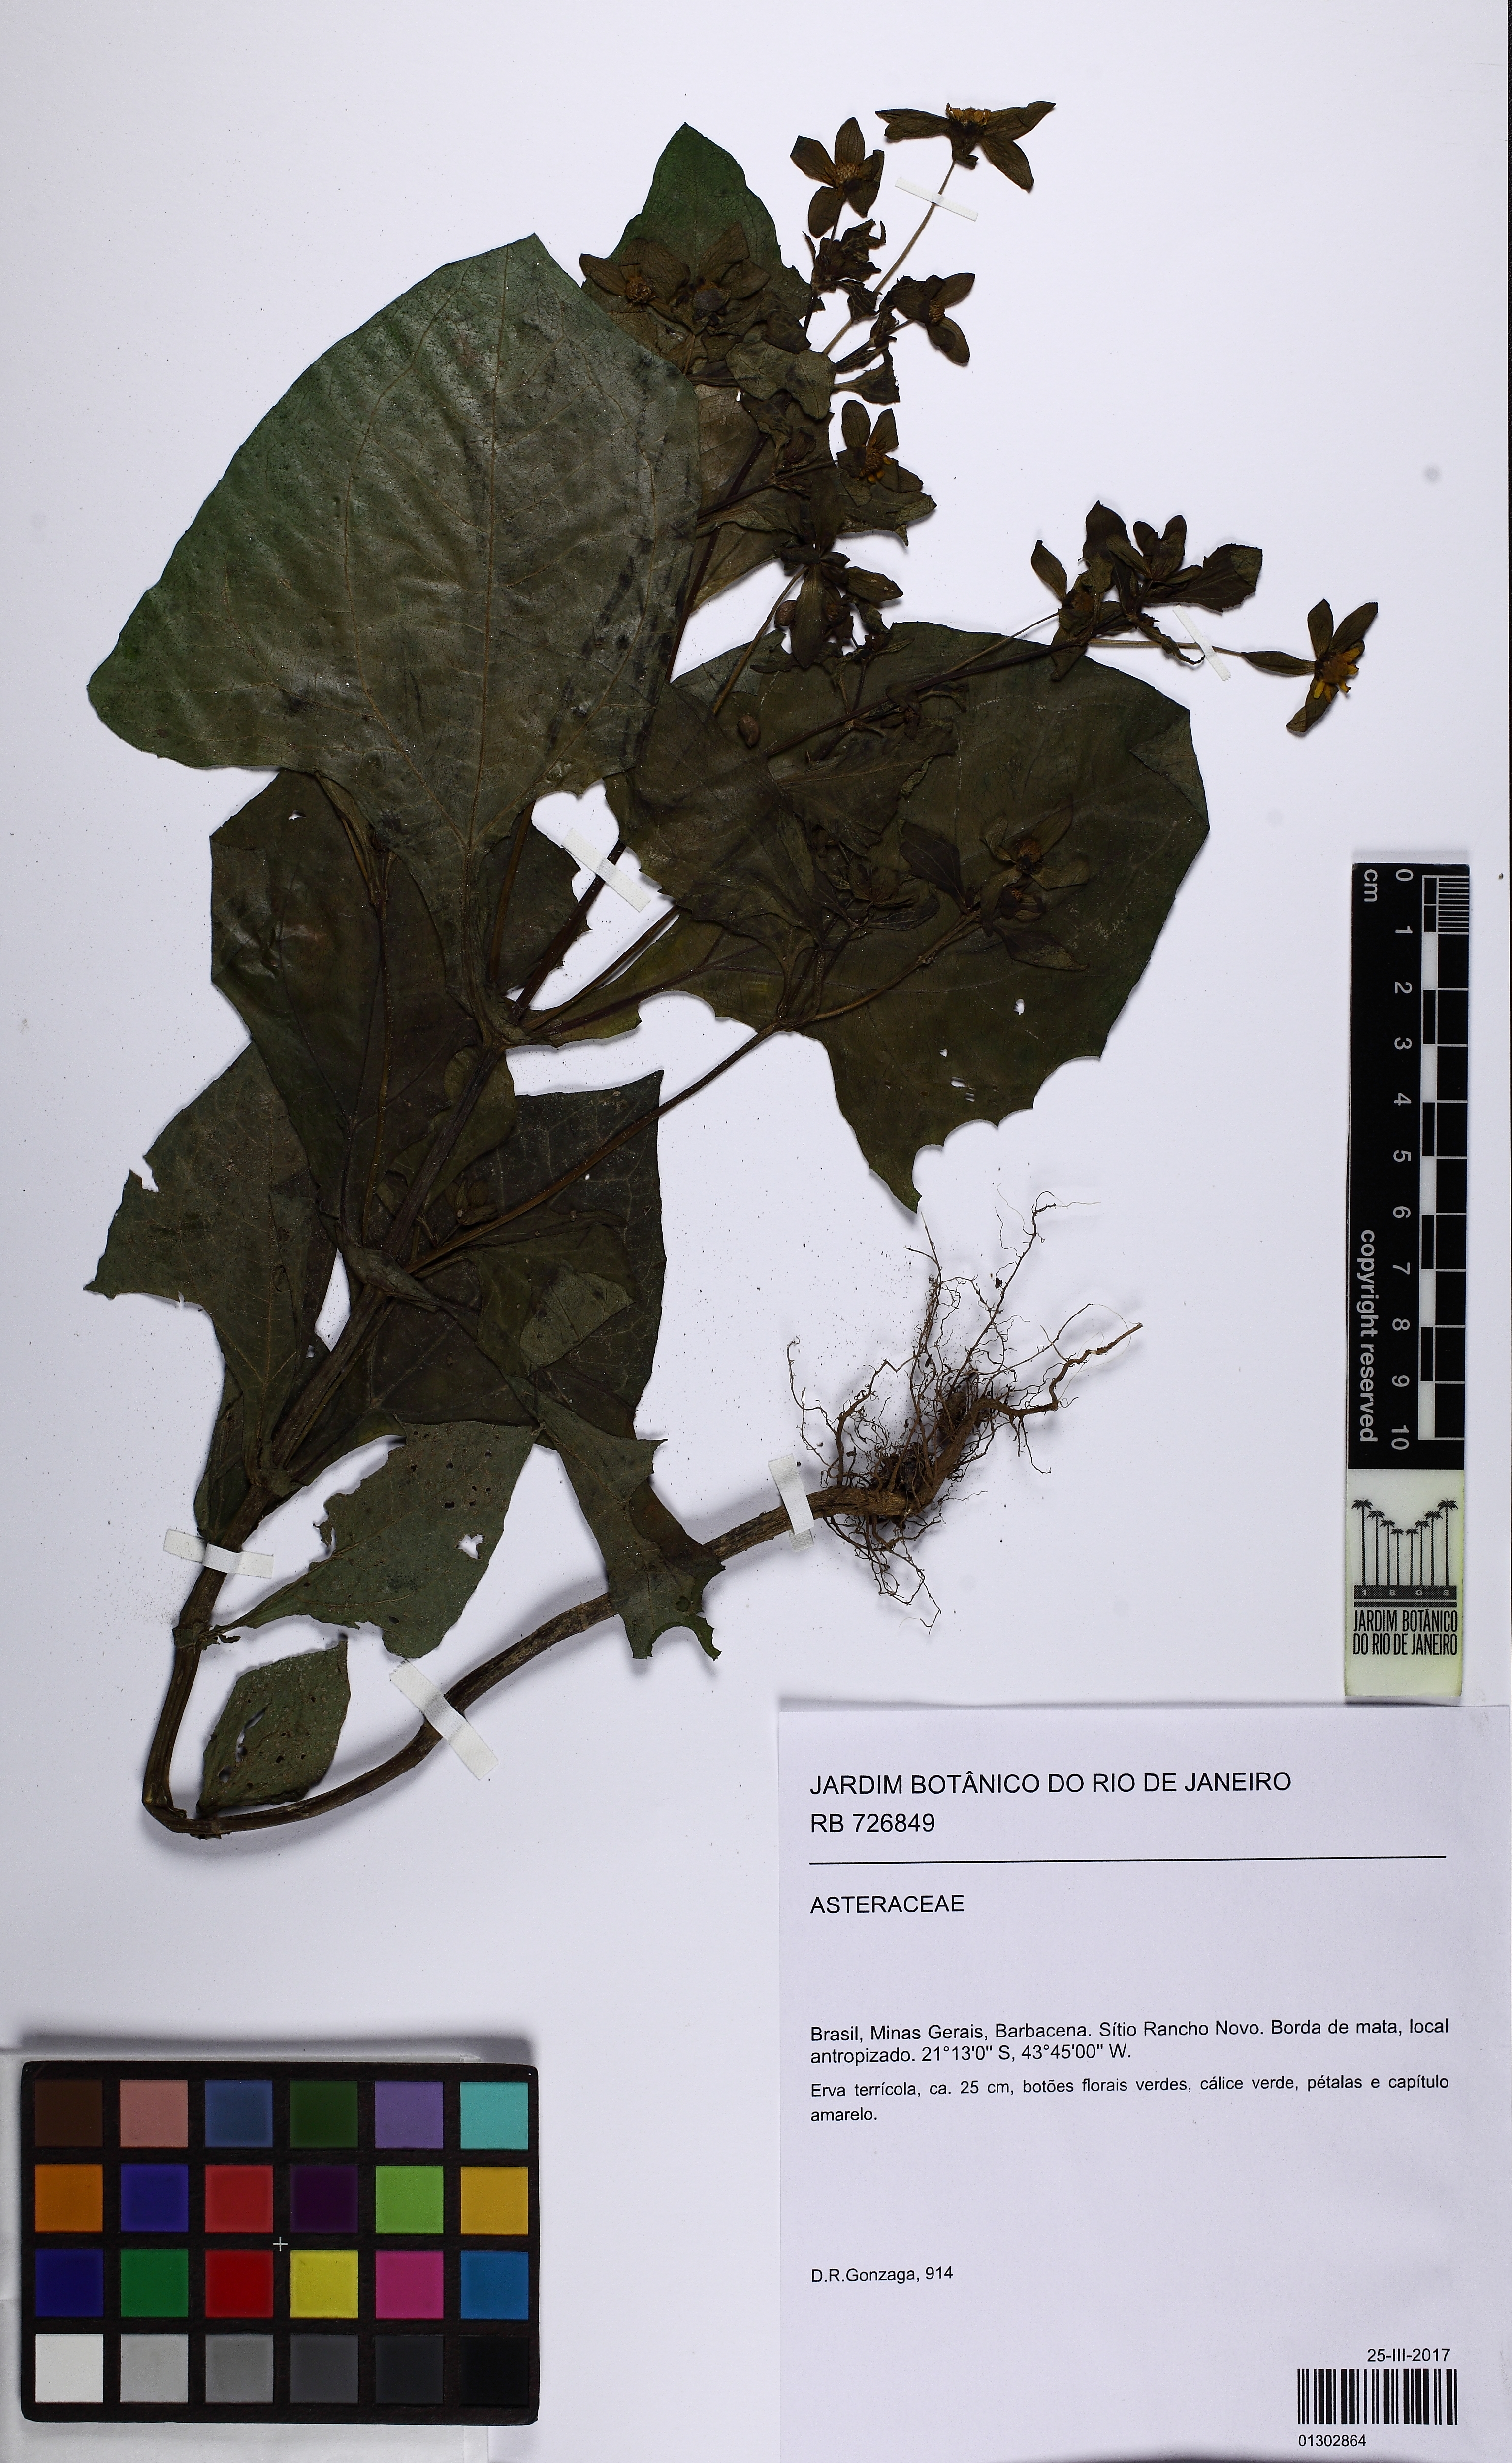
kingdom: Plantae
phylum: Tracheophyta
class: Magnoliopsida
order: Asterales
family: Asteraceae
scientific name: Asteraceae
